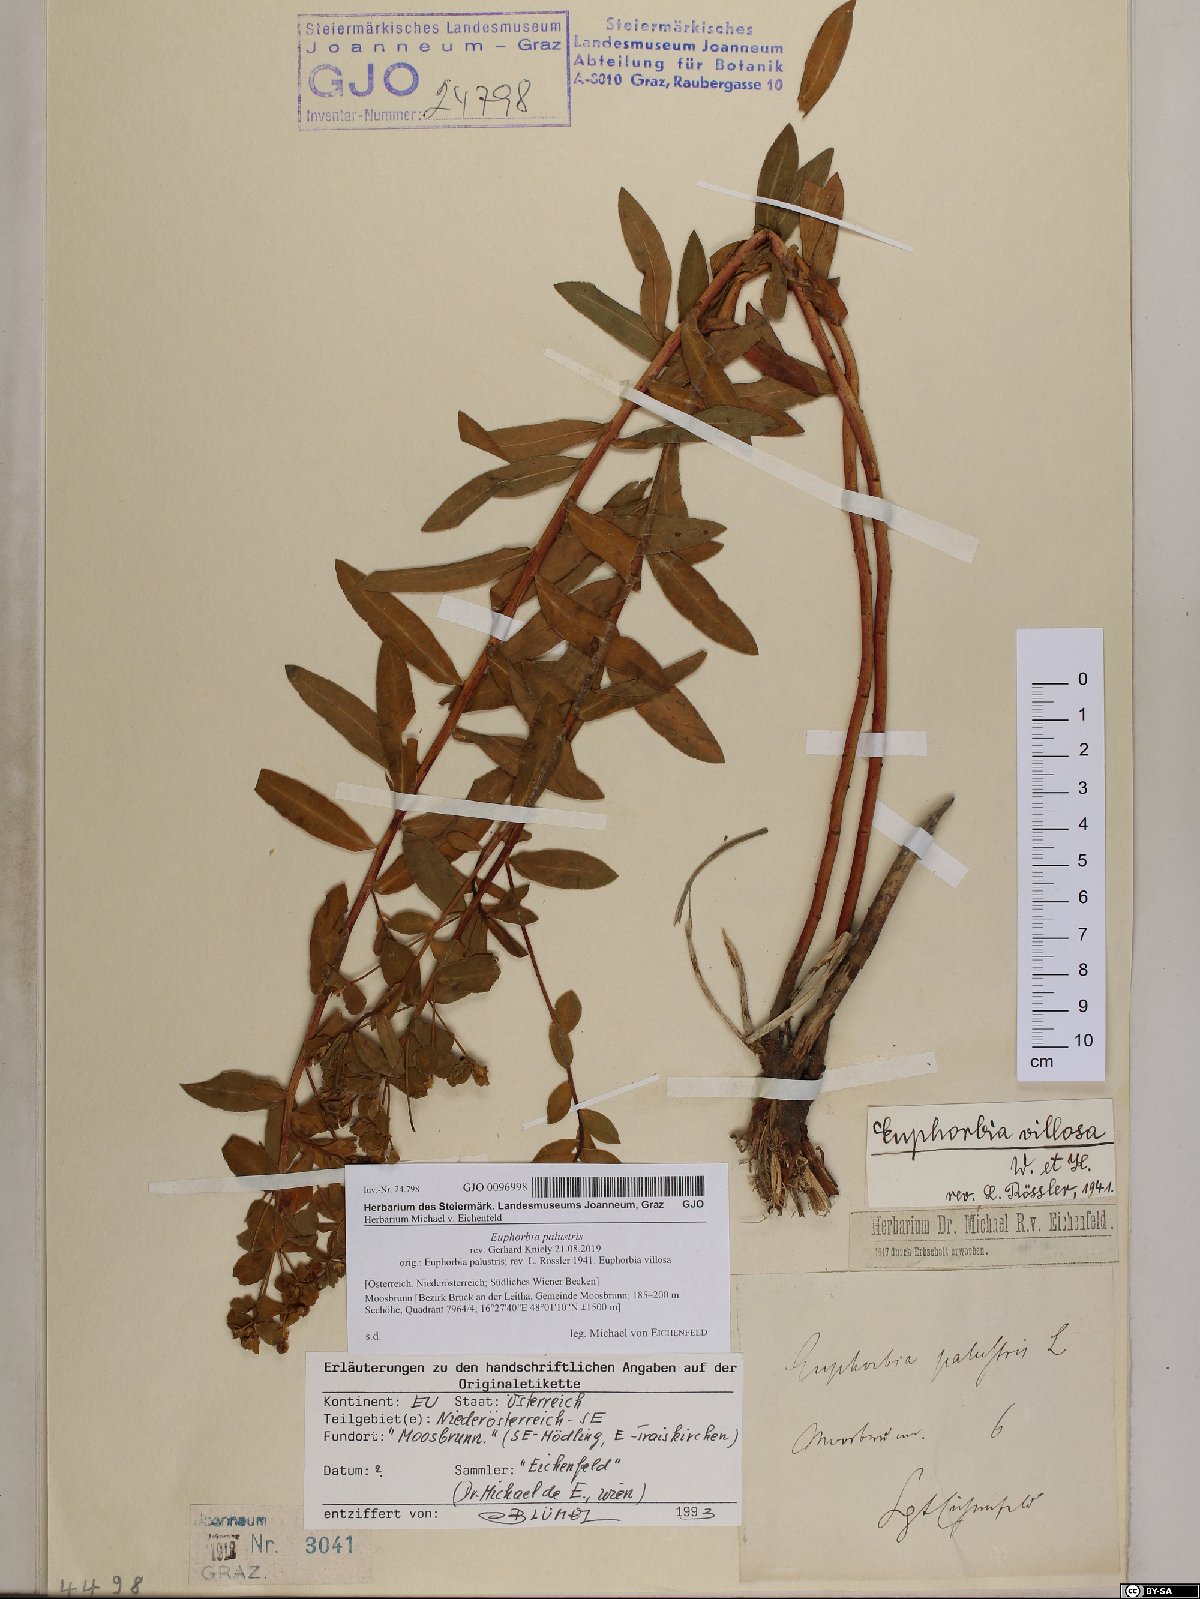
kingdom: Plantae
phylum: Tracheophyta
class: Magnoliopsida
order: Malpighiales
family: Euphorbiaceae
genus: Euphorbia
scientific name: Euphorbia palustris
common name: Marsh spurge
